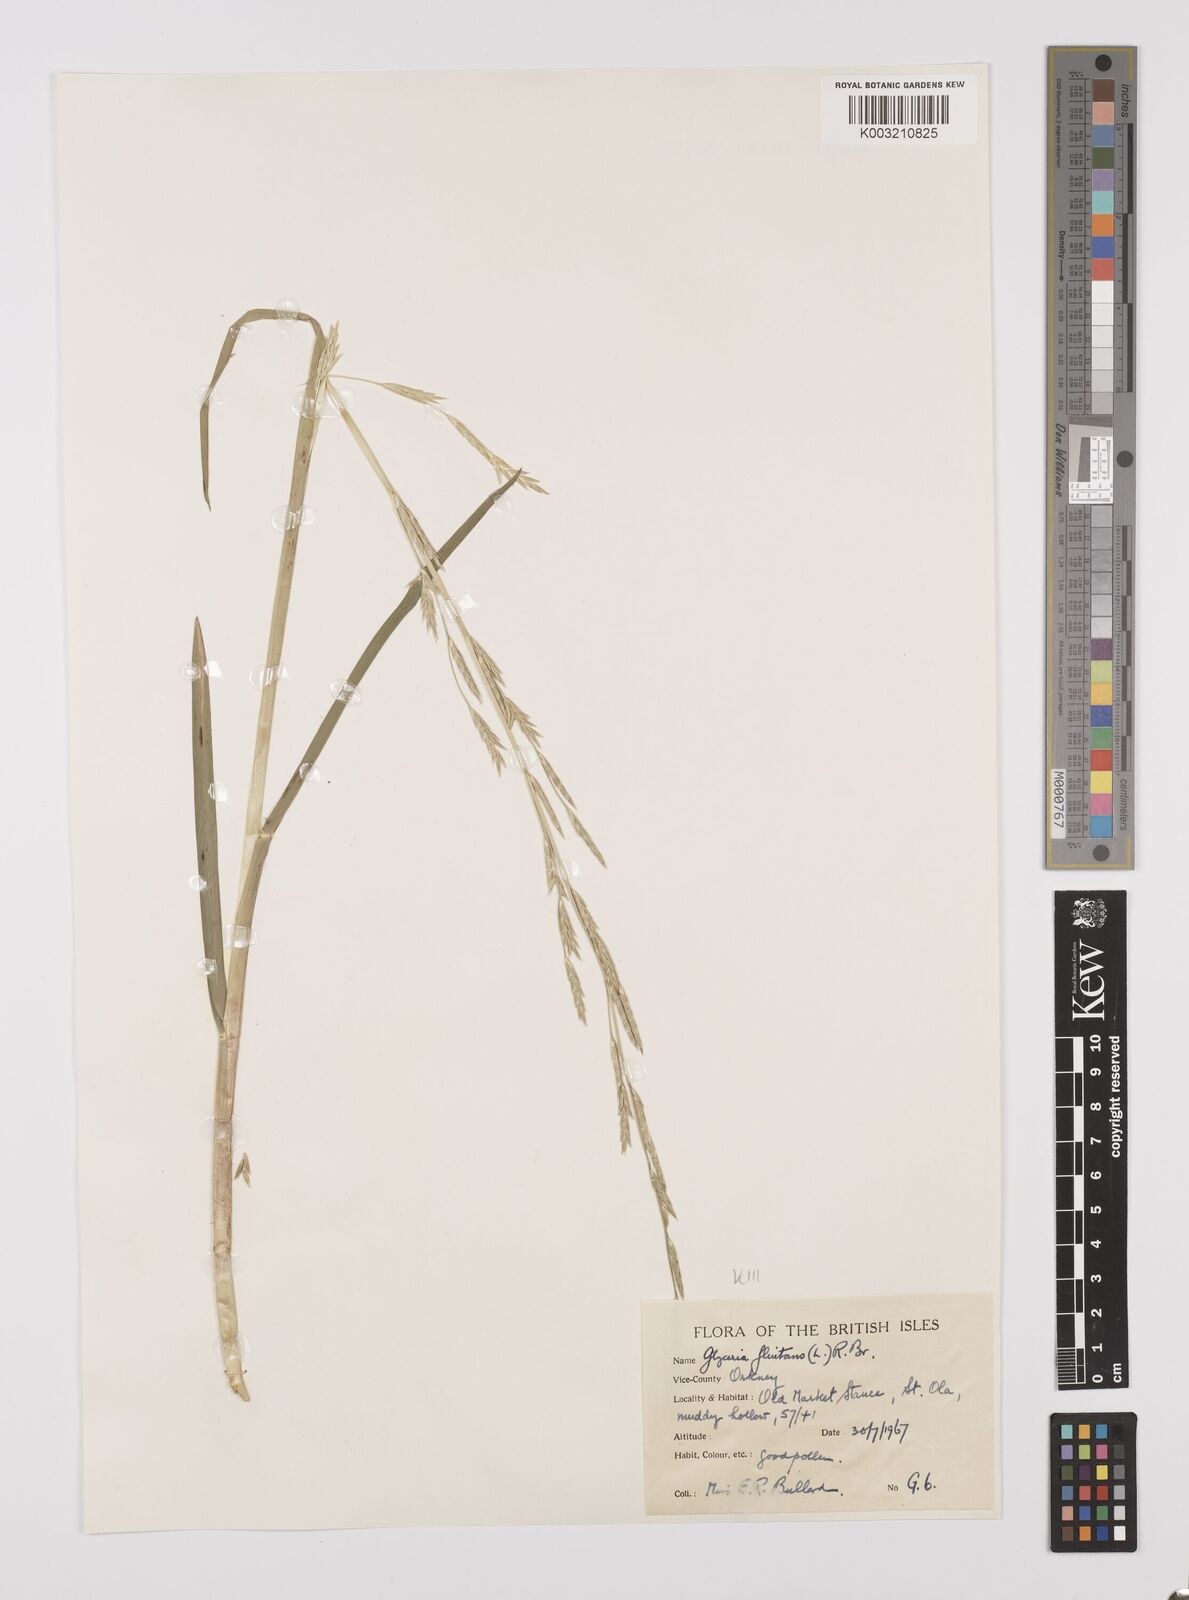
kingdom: Plantae
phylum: Tracheophyta
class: Liliopsida
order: Poales
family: Poaceae
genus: Glyceria
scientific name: Glyceria fluitans
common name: Floating sweet-grass
